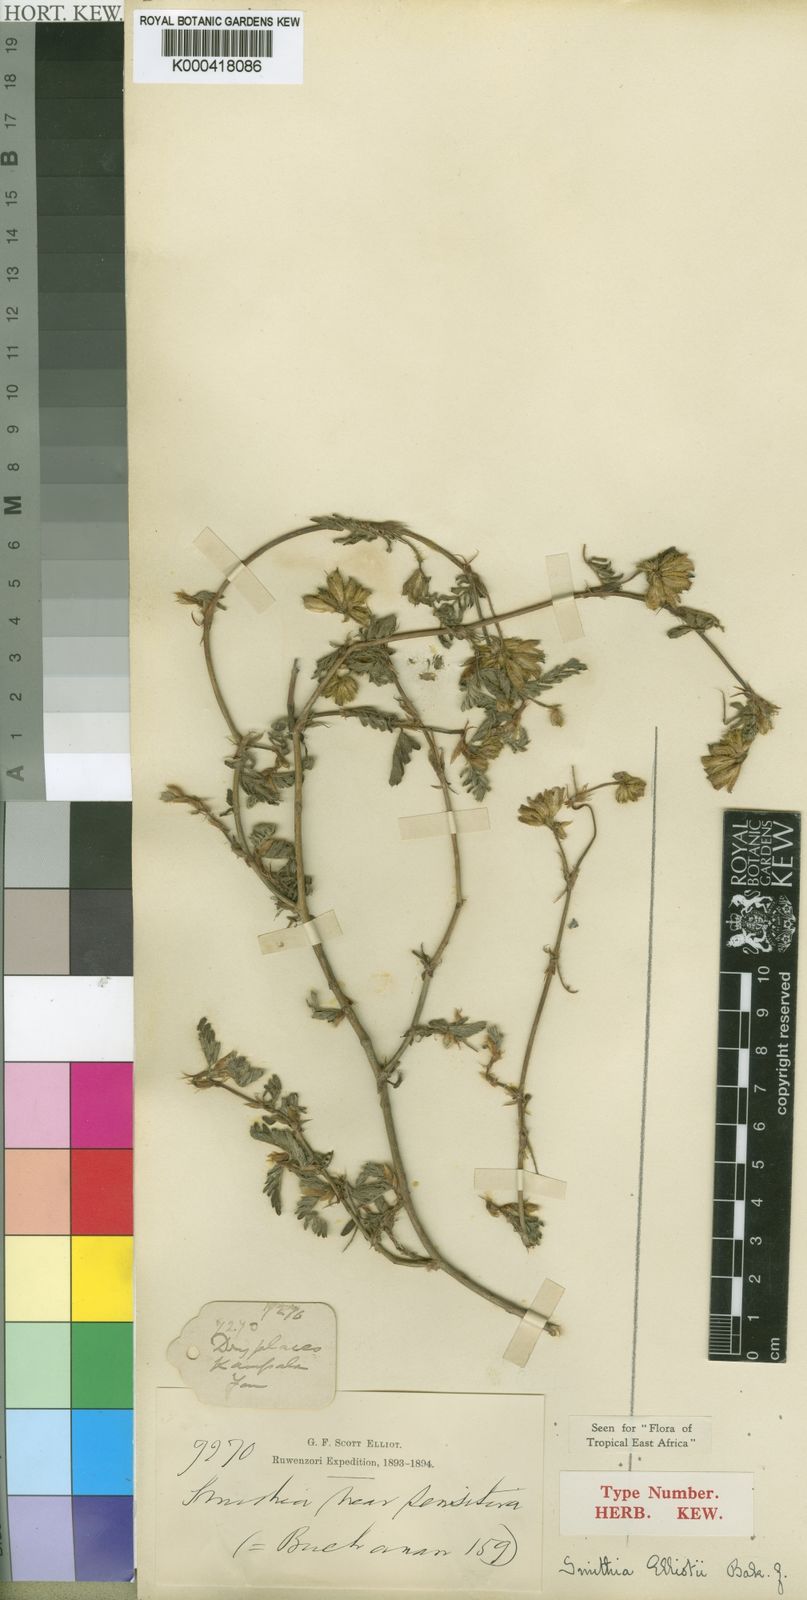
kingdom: Plantae
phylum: Tracheophyta
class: Magnoliopsida
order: Fabales
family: Fabaceae
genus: Smithia
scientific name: Smithia elliotii
